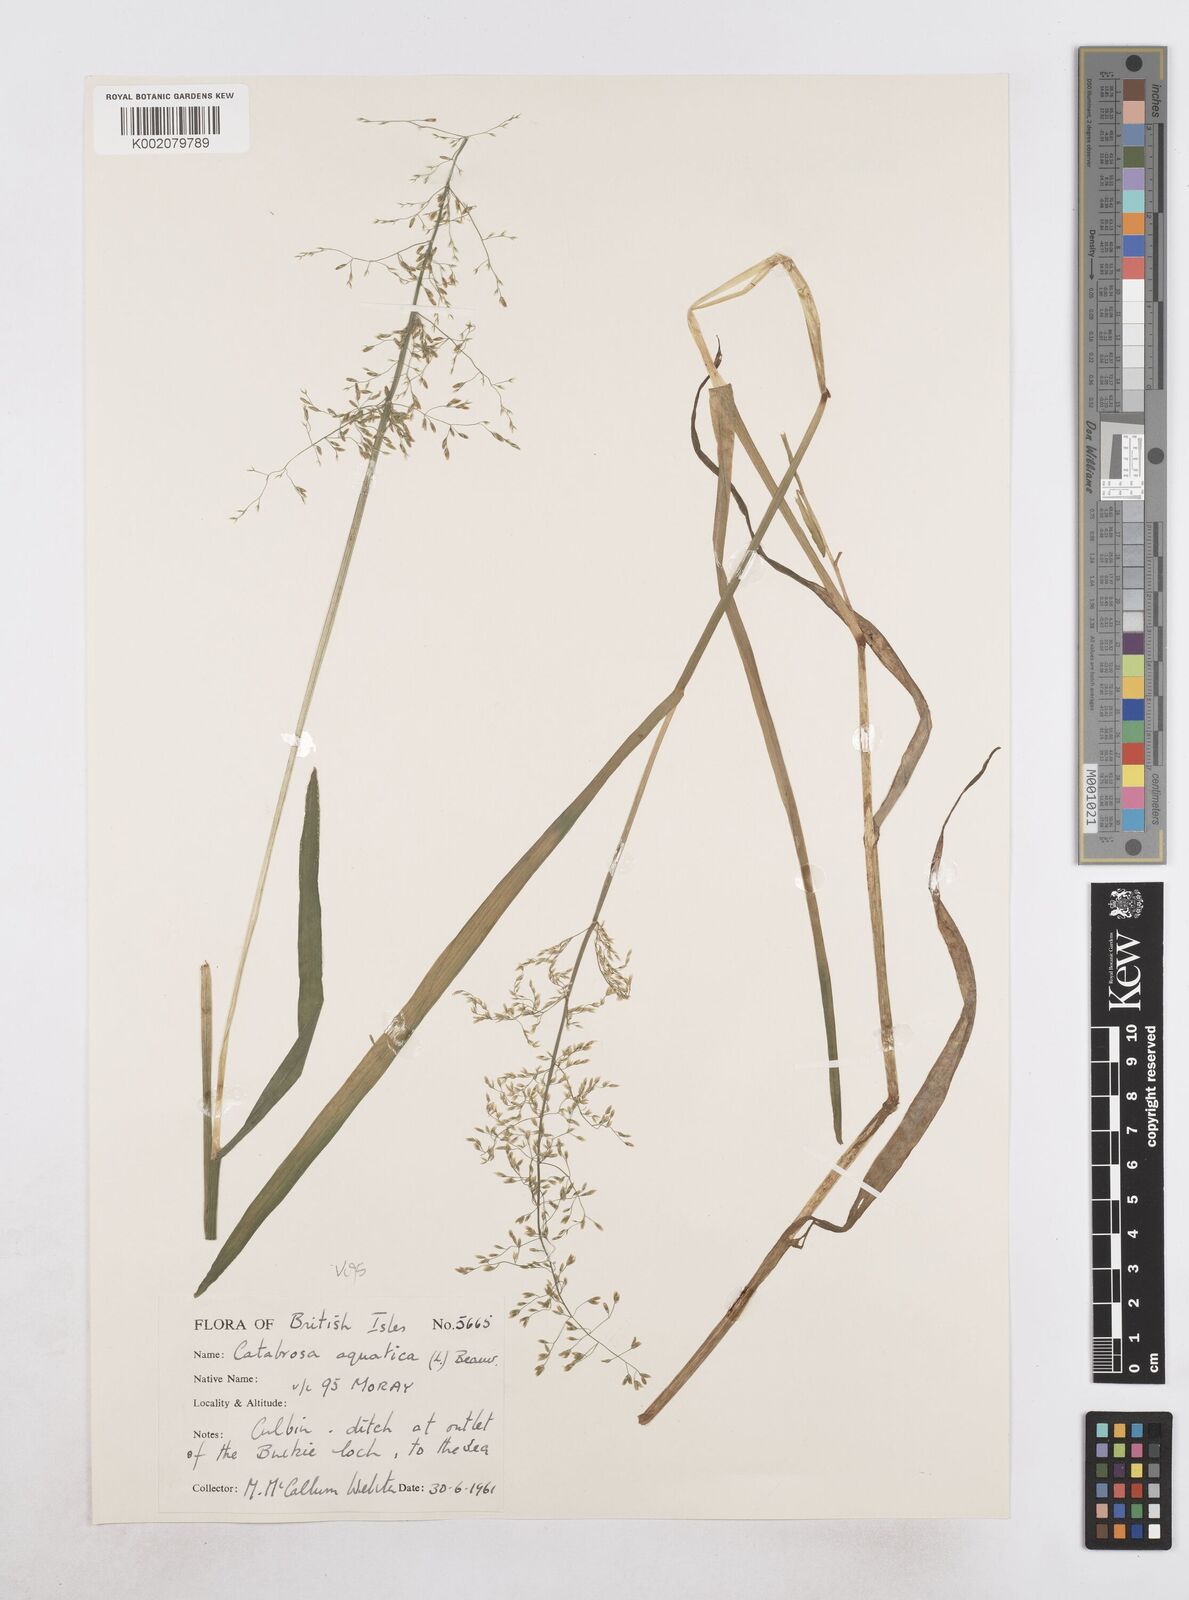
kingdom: Plantae
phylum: Tracheophyta
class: Liliopsida
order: Poales
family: Poaceae
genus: Catabrosa
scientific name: Catabrosa aquatica
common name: Whorl-grass
